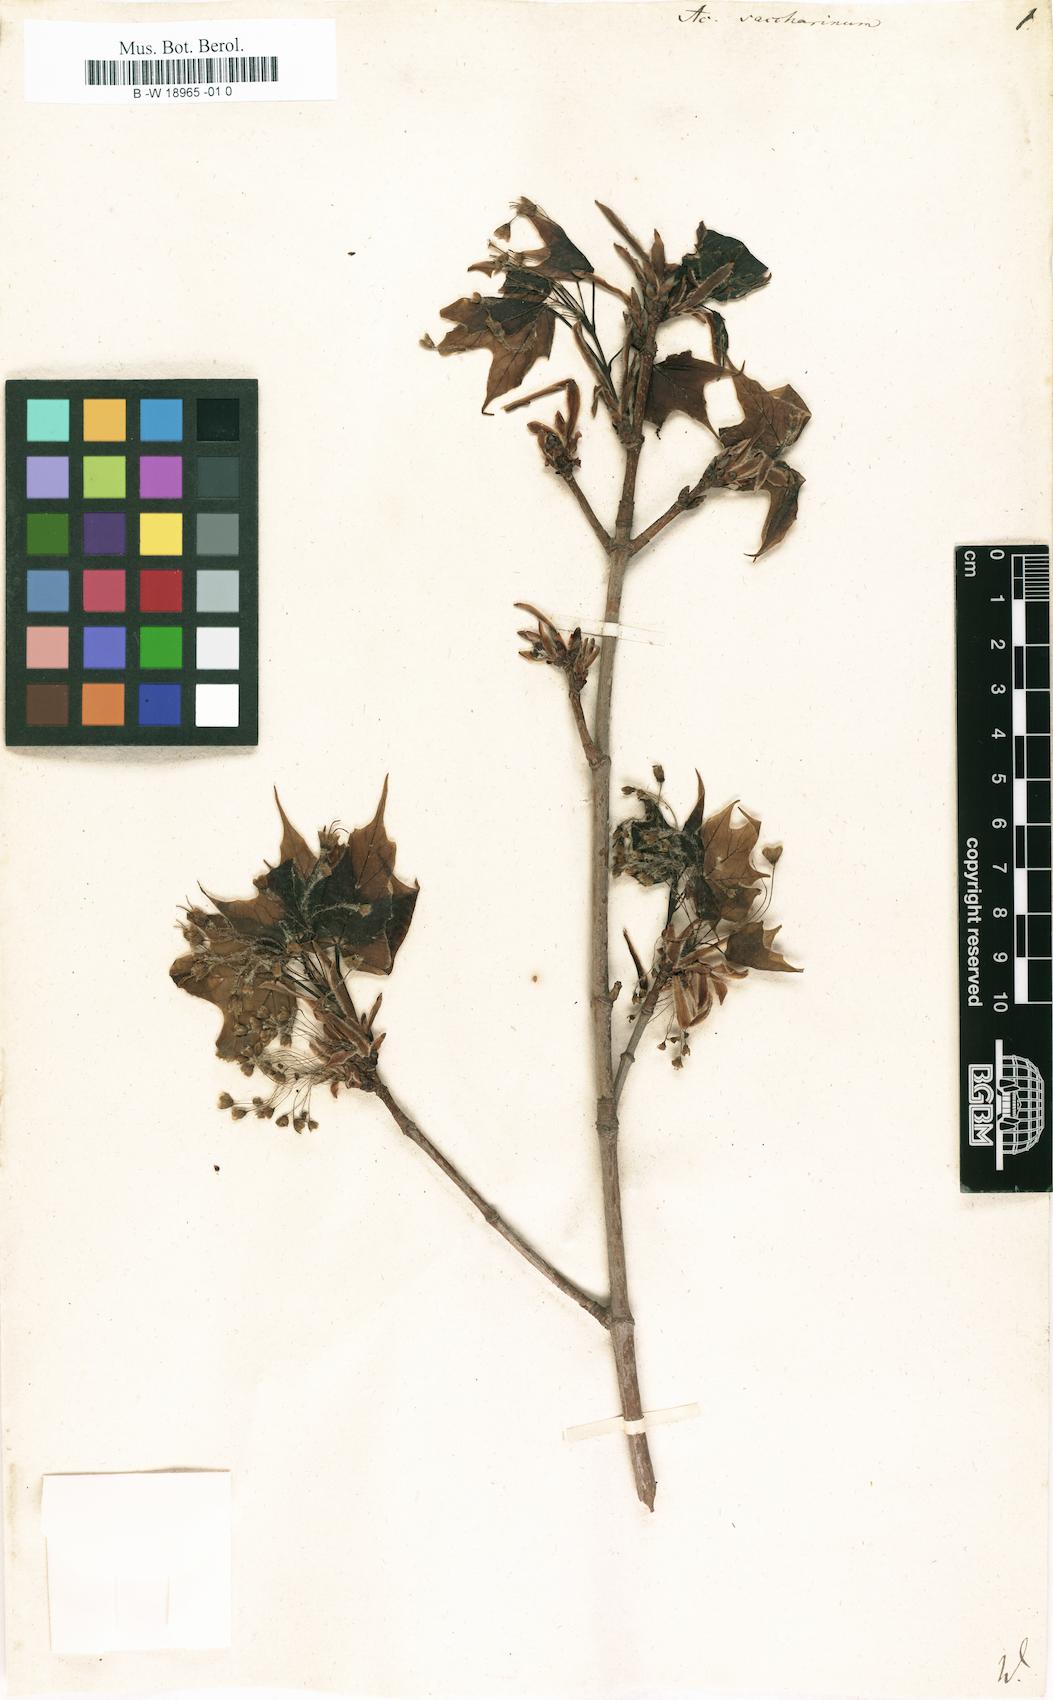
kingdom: Plantae
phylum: Tracheophyta
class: Magnoliopsida
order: Sapindales
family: Sapindaceae
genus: Acer
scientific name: Acer saccharinum
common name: Silver maple
